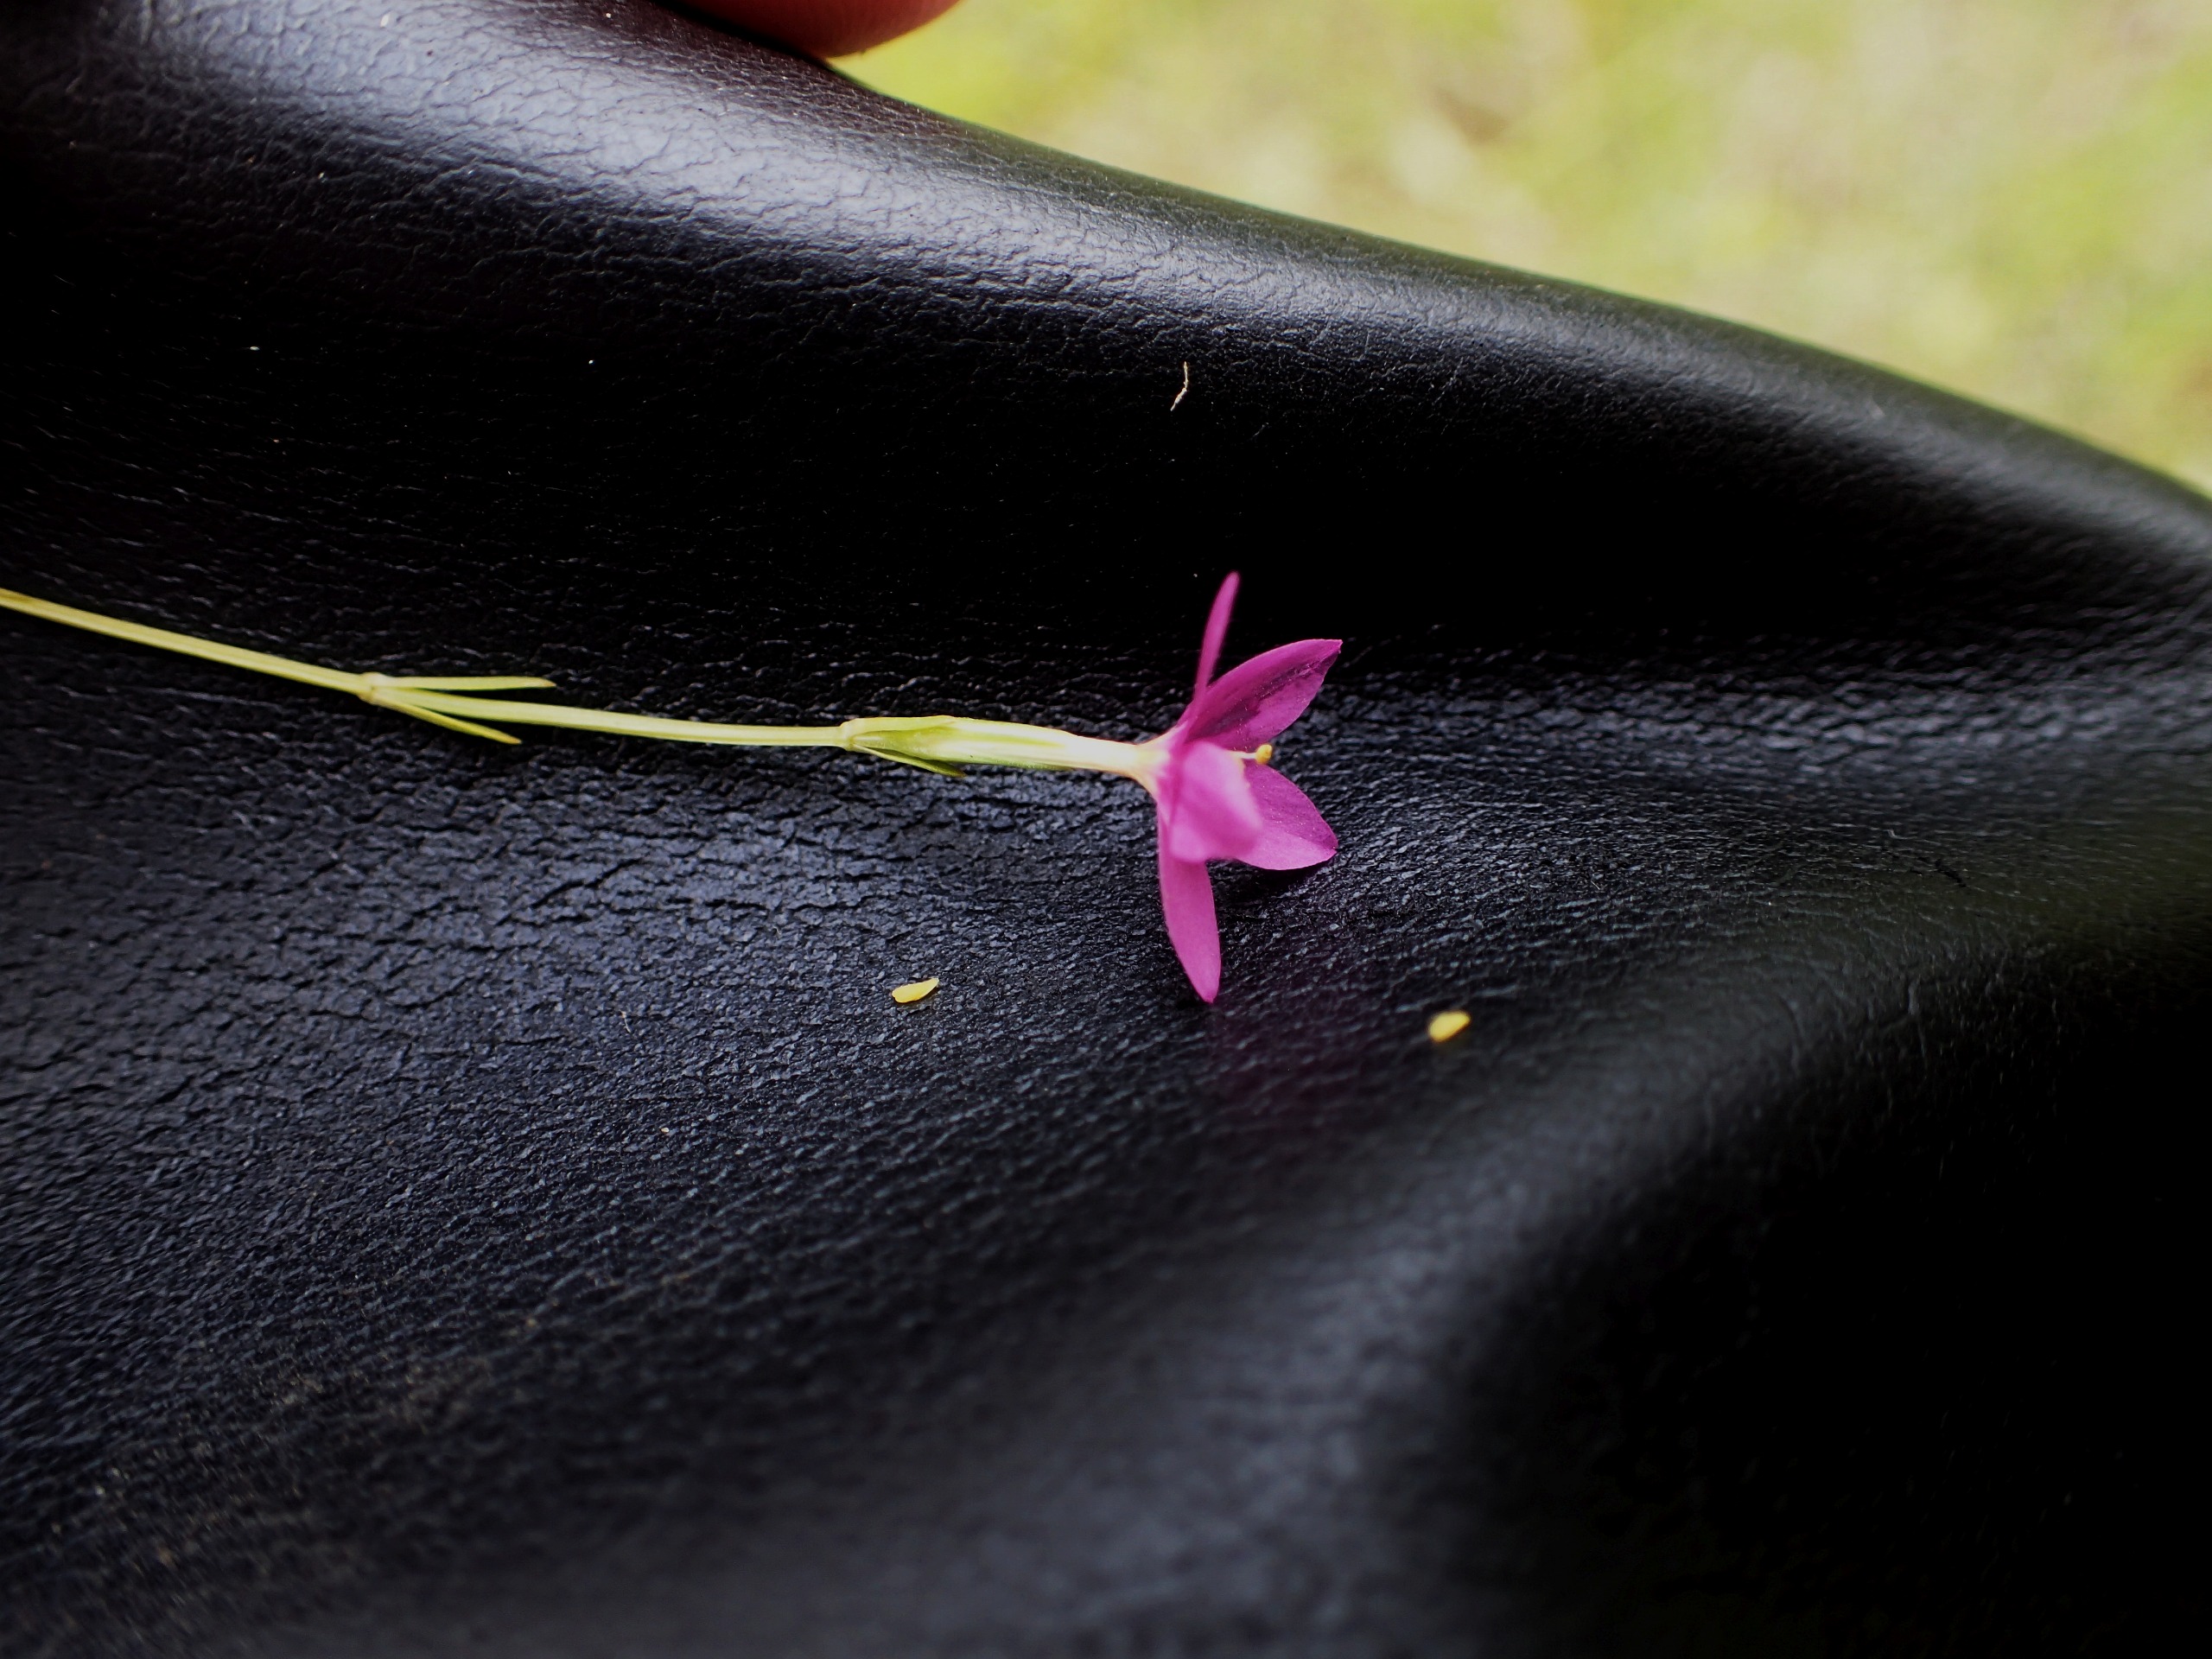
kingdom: Plantae
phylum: Tracheophyta
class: Magnoliopsida
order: Gentianales
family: Gentianaceae
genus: Centaurium
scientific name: Centaurium erythraea
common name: Mark-tusindgylden
